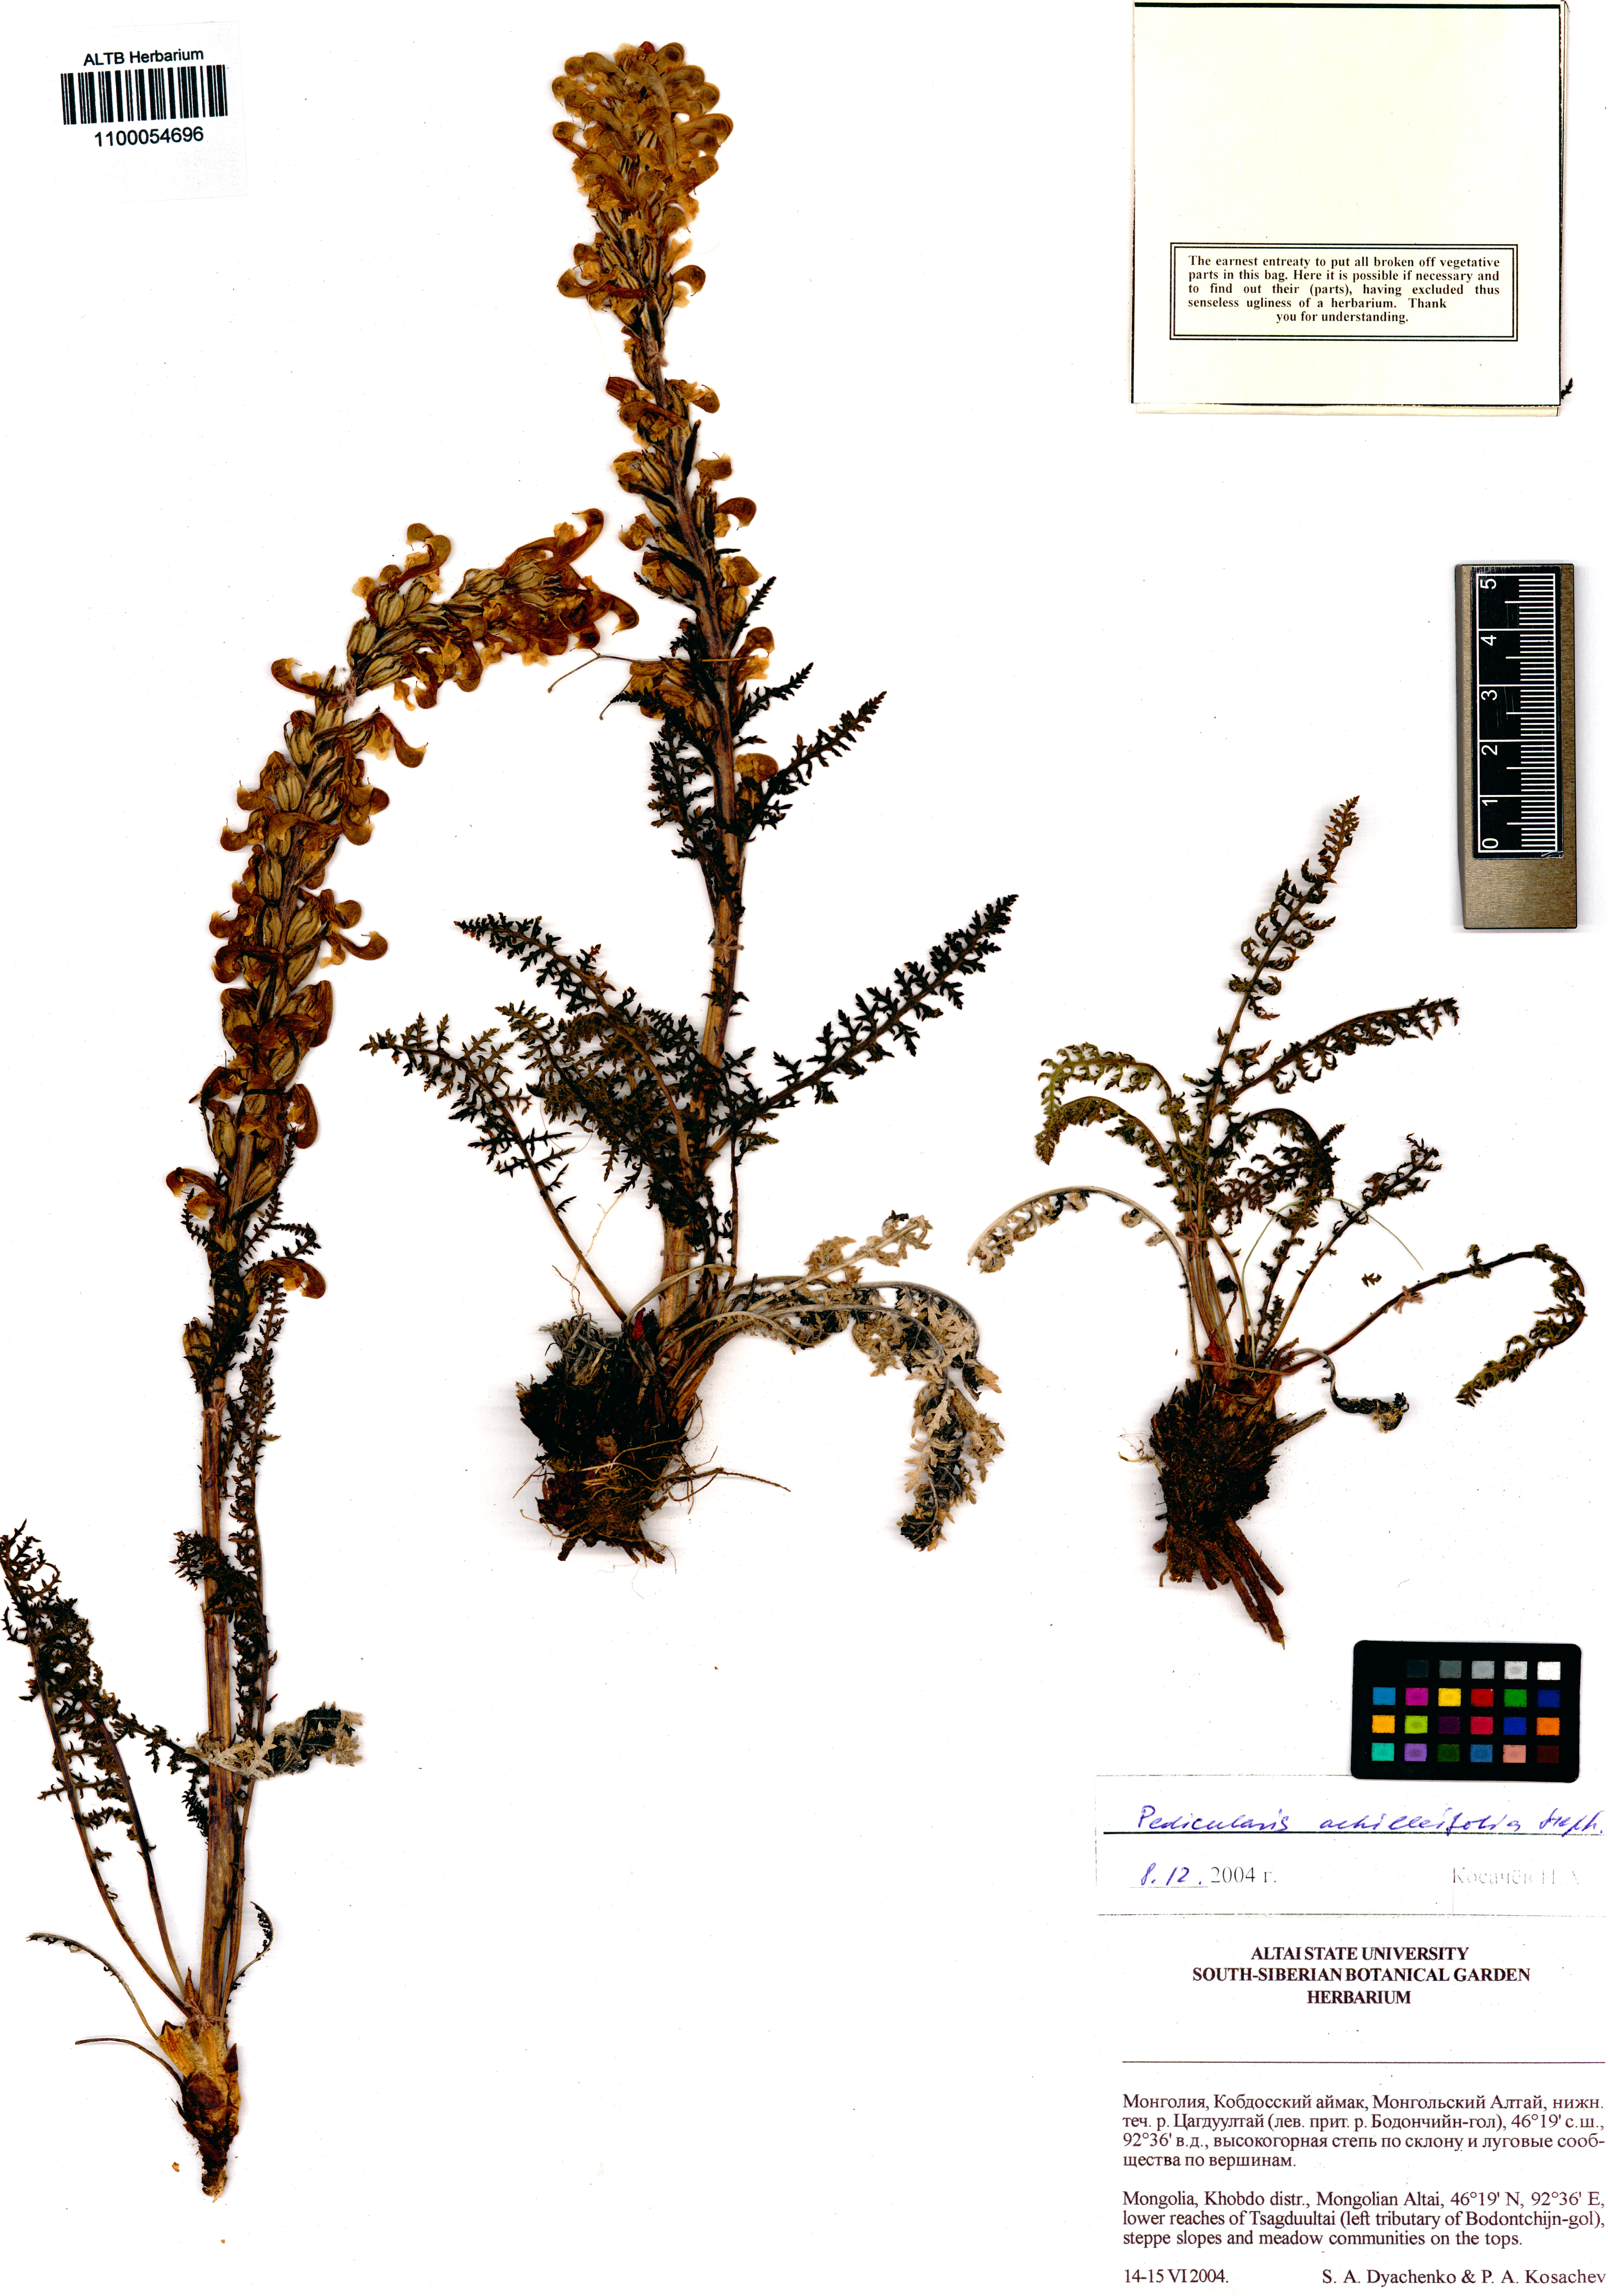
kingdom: Plantae
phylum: Tracheophyta
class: Magnoliopsida
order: Lamiales
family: Orobanchaceae
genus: Pedicularis
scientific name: Pedicularis achilleifolia
